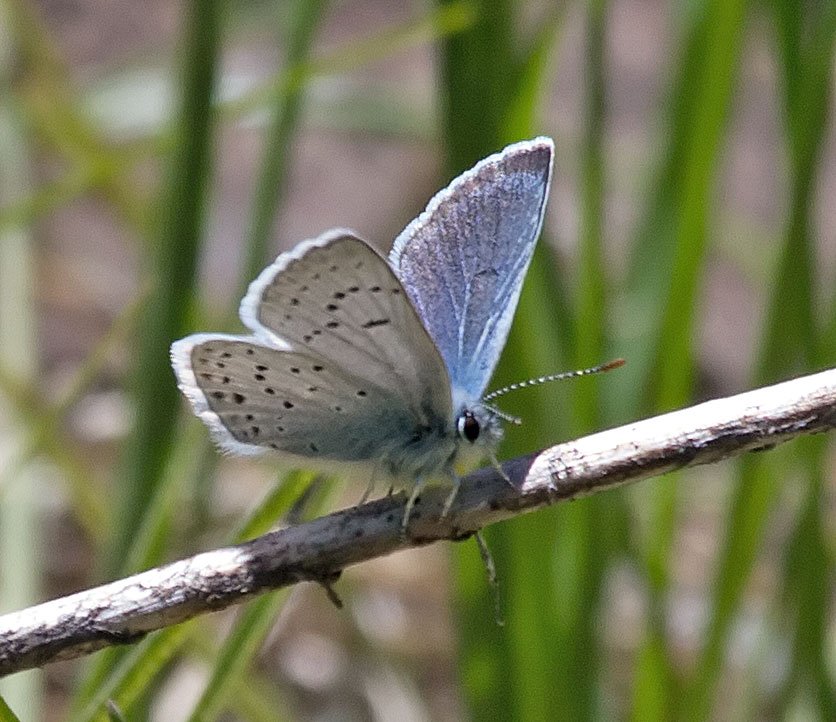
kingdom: Animalia
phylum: Arthropoda
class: Insecta
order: Lepidoptera
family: Lycaenidae
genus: Plebejus
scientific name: Plebejus saepiolus
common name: Greenish Blue
